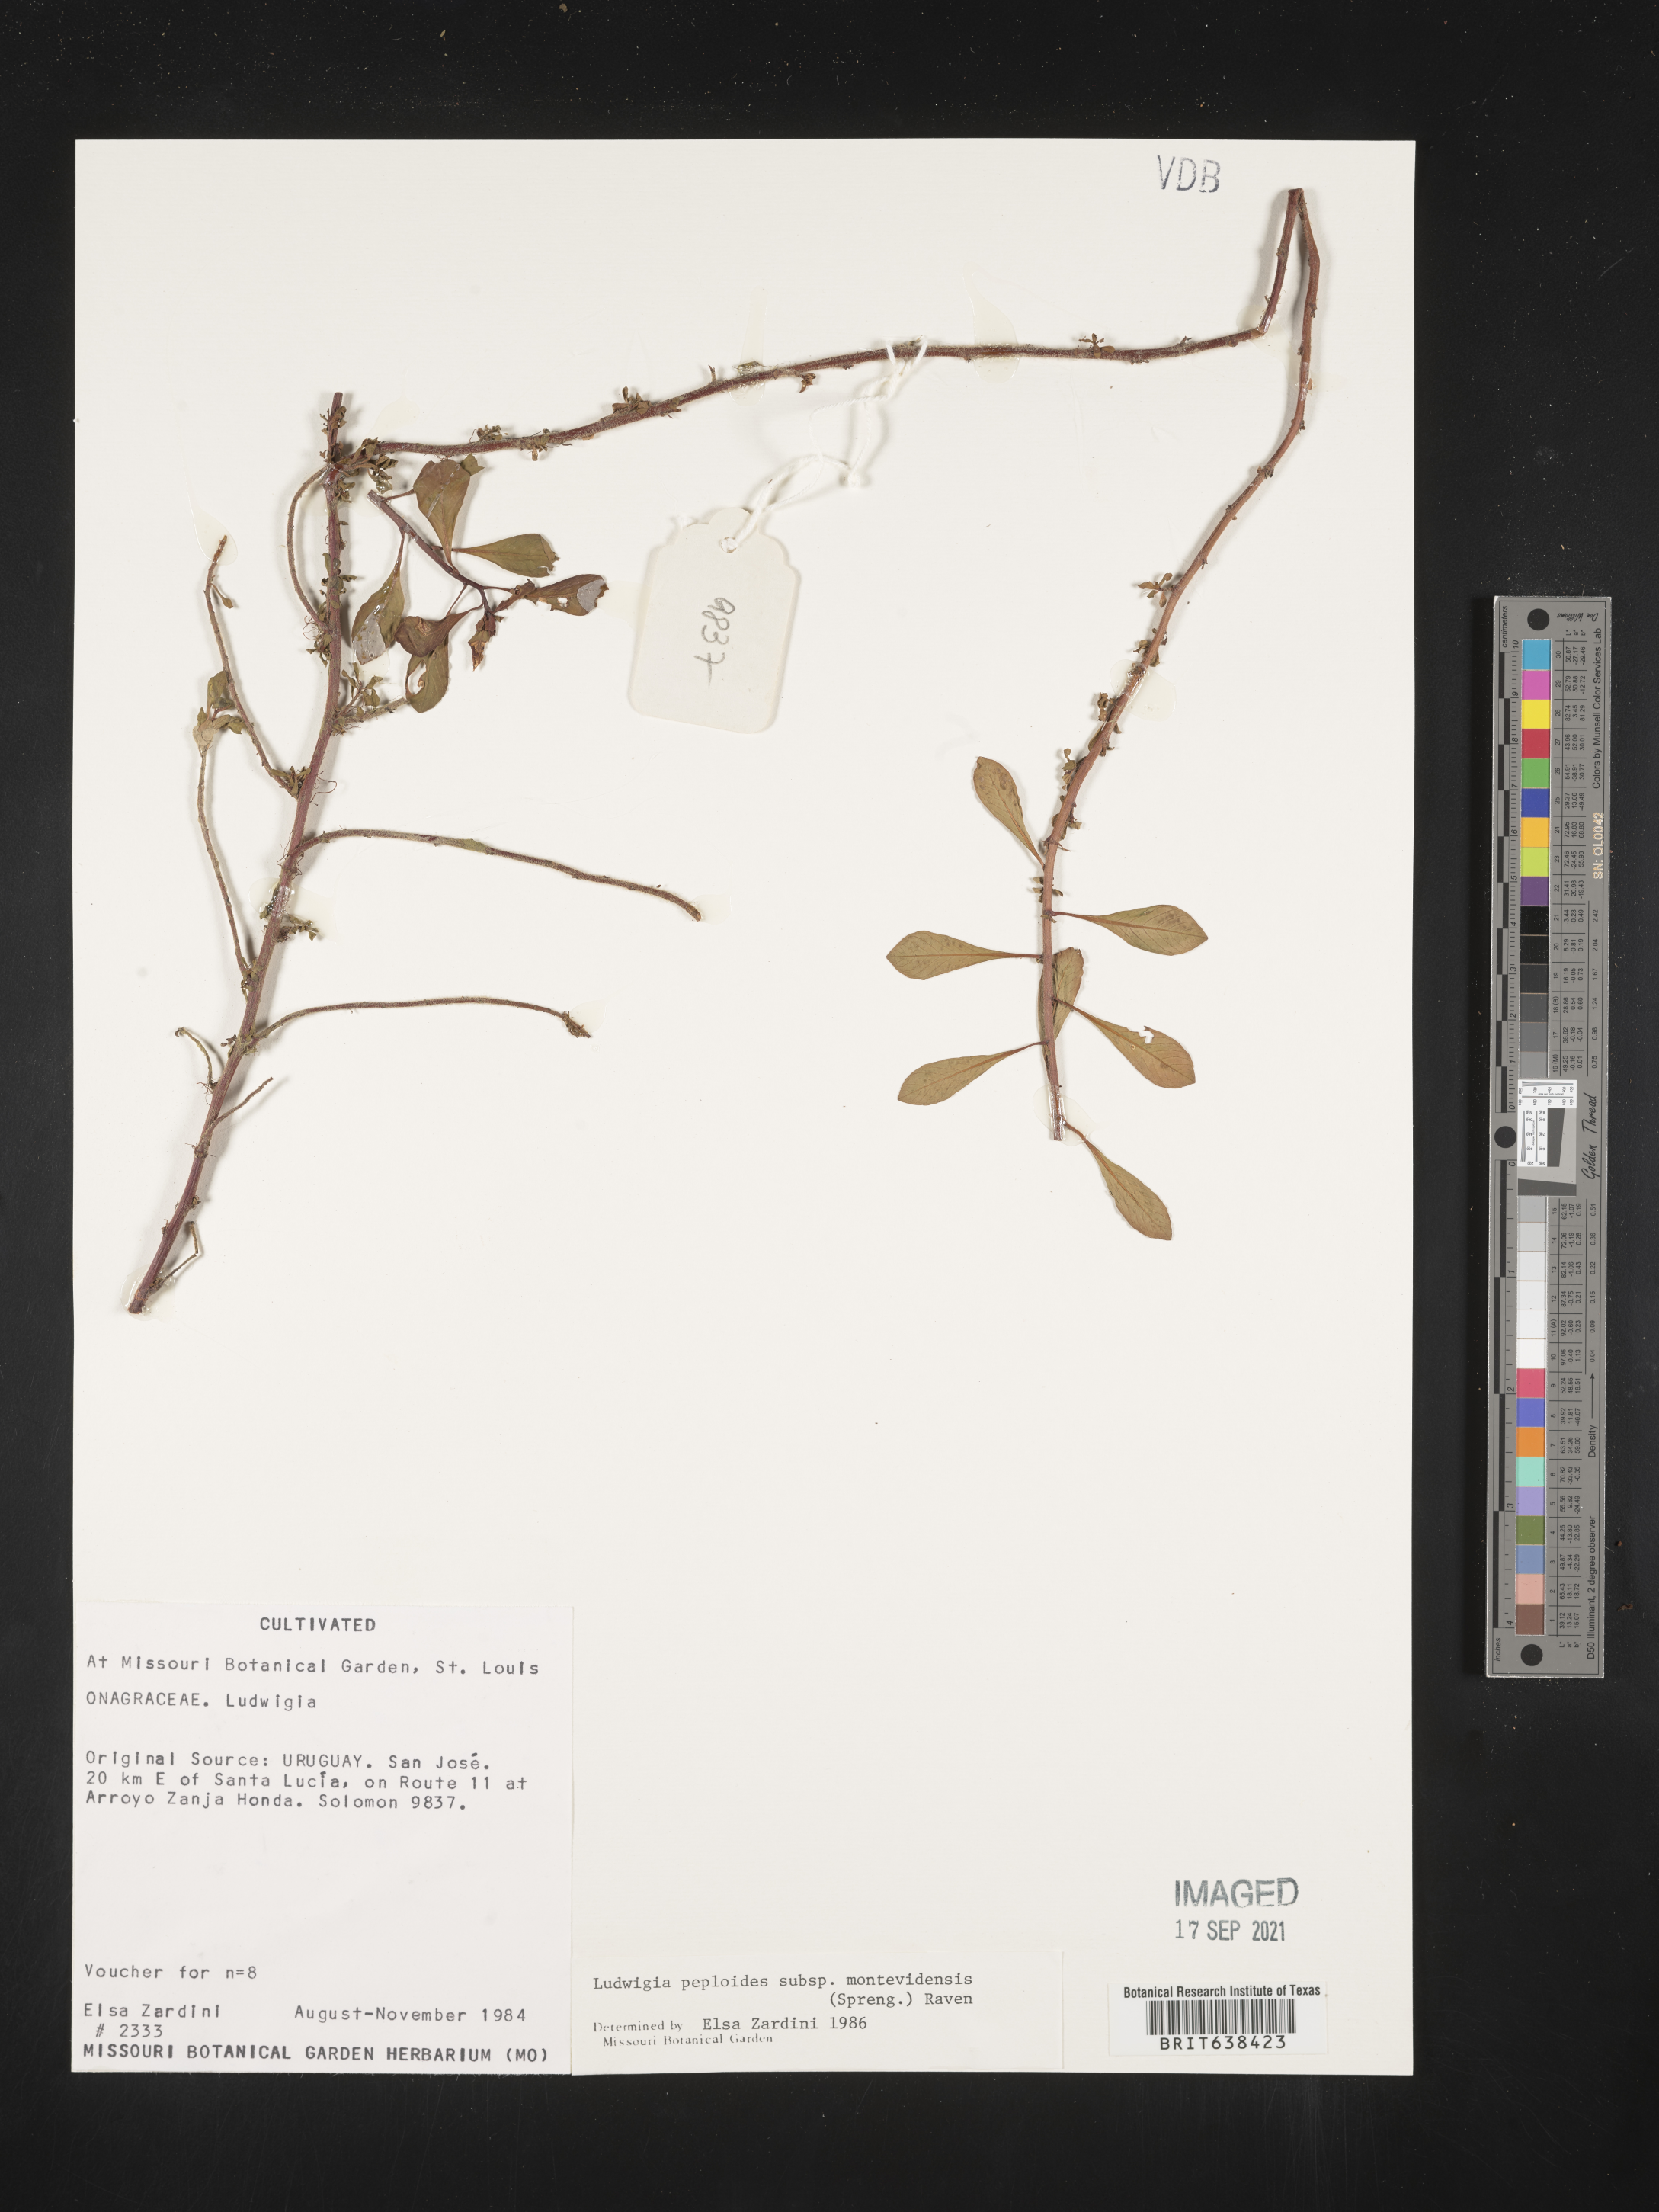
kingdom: Plantae
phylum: Tracheophyta
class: Magnoliopsida
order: Myrtales
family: Onagraceae
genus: Ludwigia
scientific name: Ludwigia
